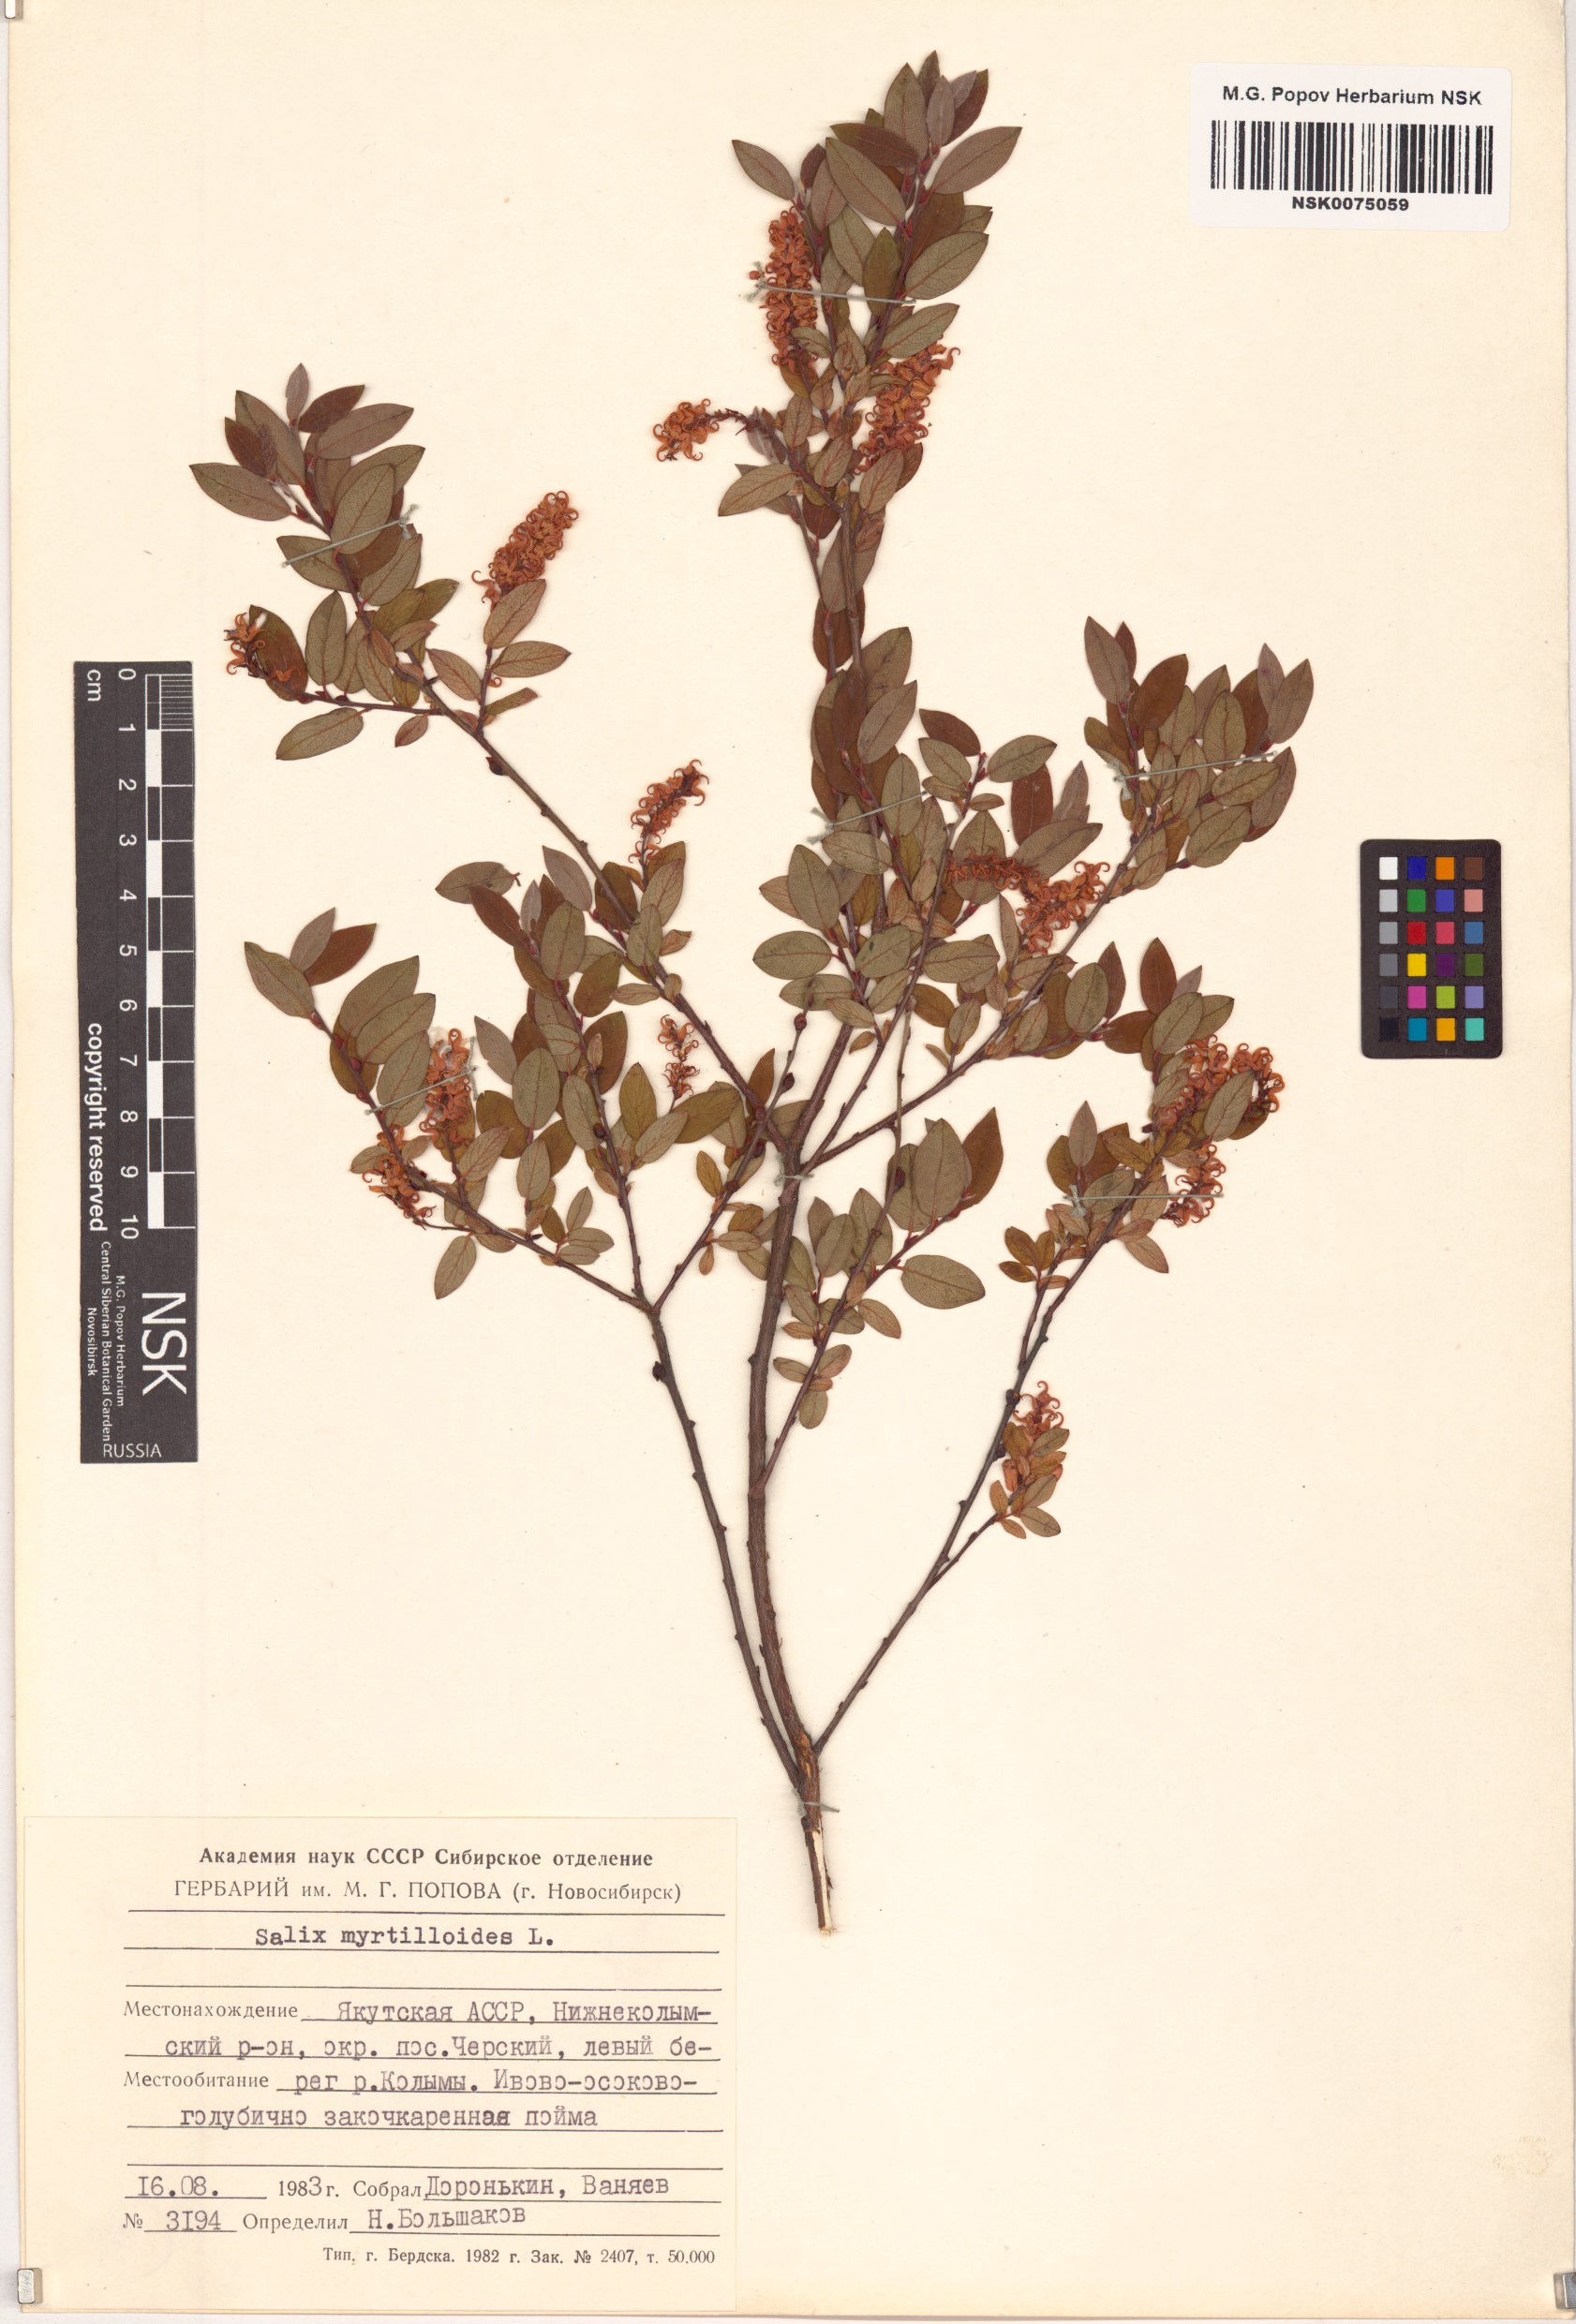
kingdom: Plantae
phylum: Tracheophyta
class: Magnoliopsida
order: Malpighiales
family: Salicaceae
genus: Salix
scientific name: Salix myrtilloides
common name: Myrtle-leaved willow
